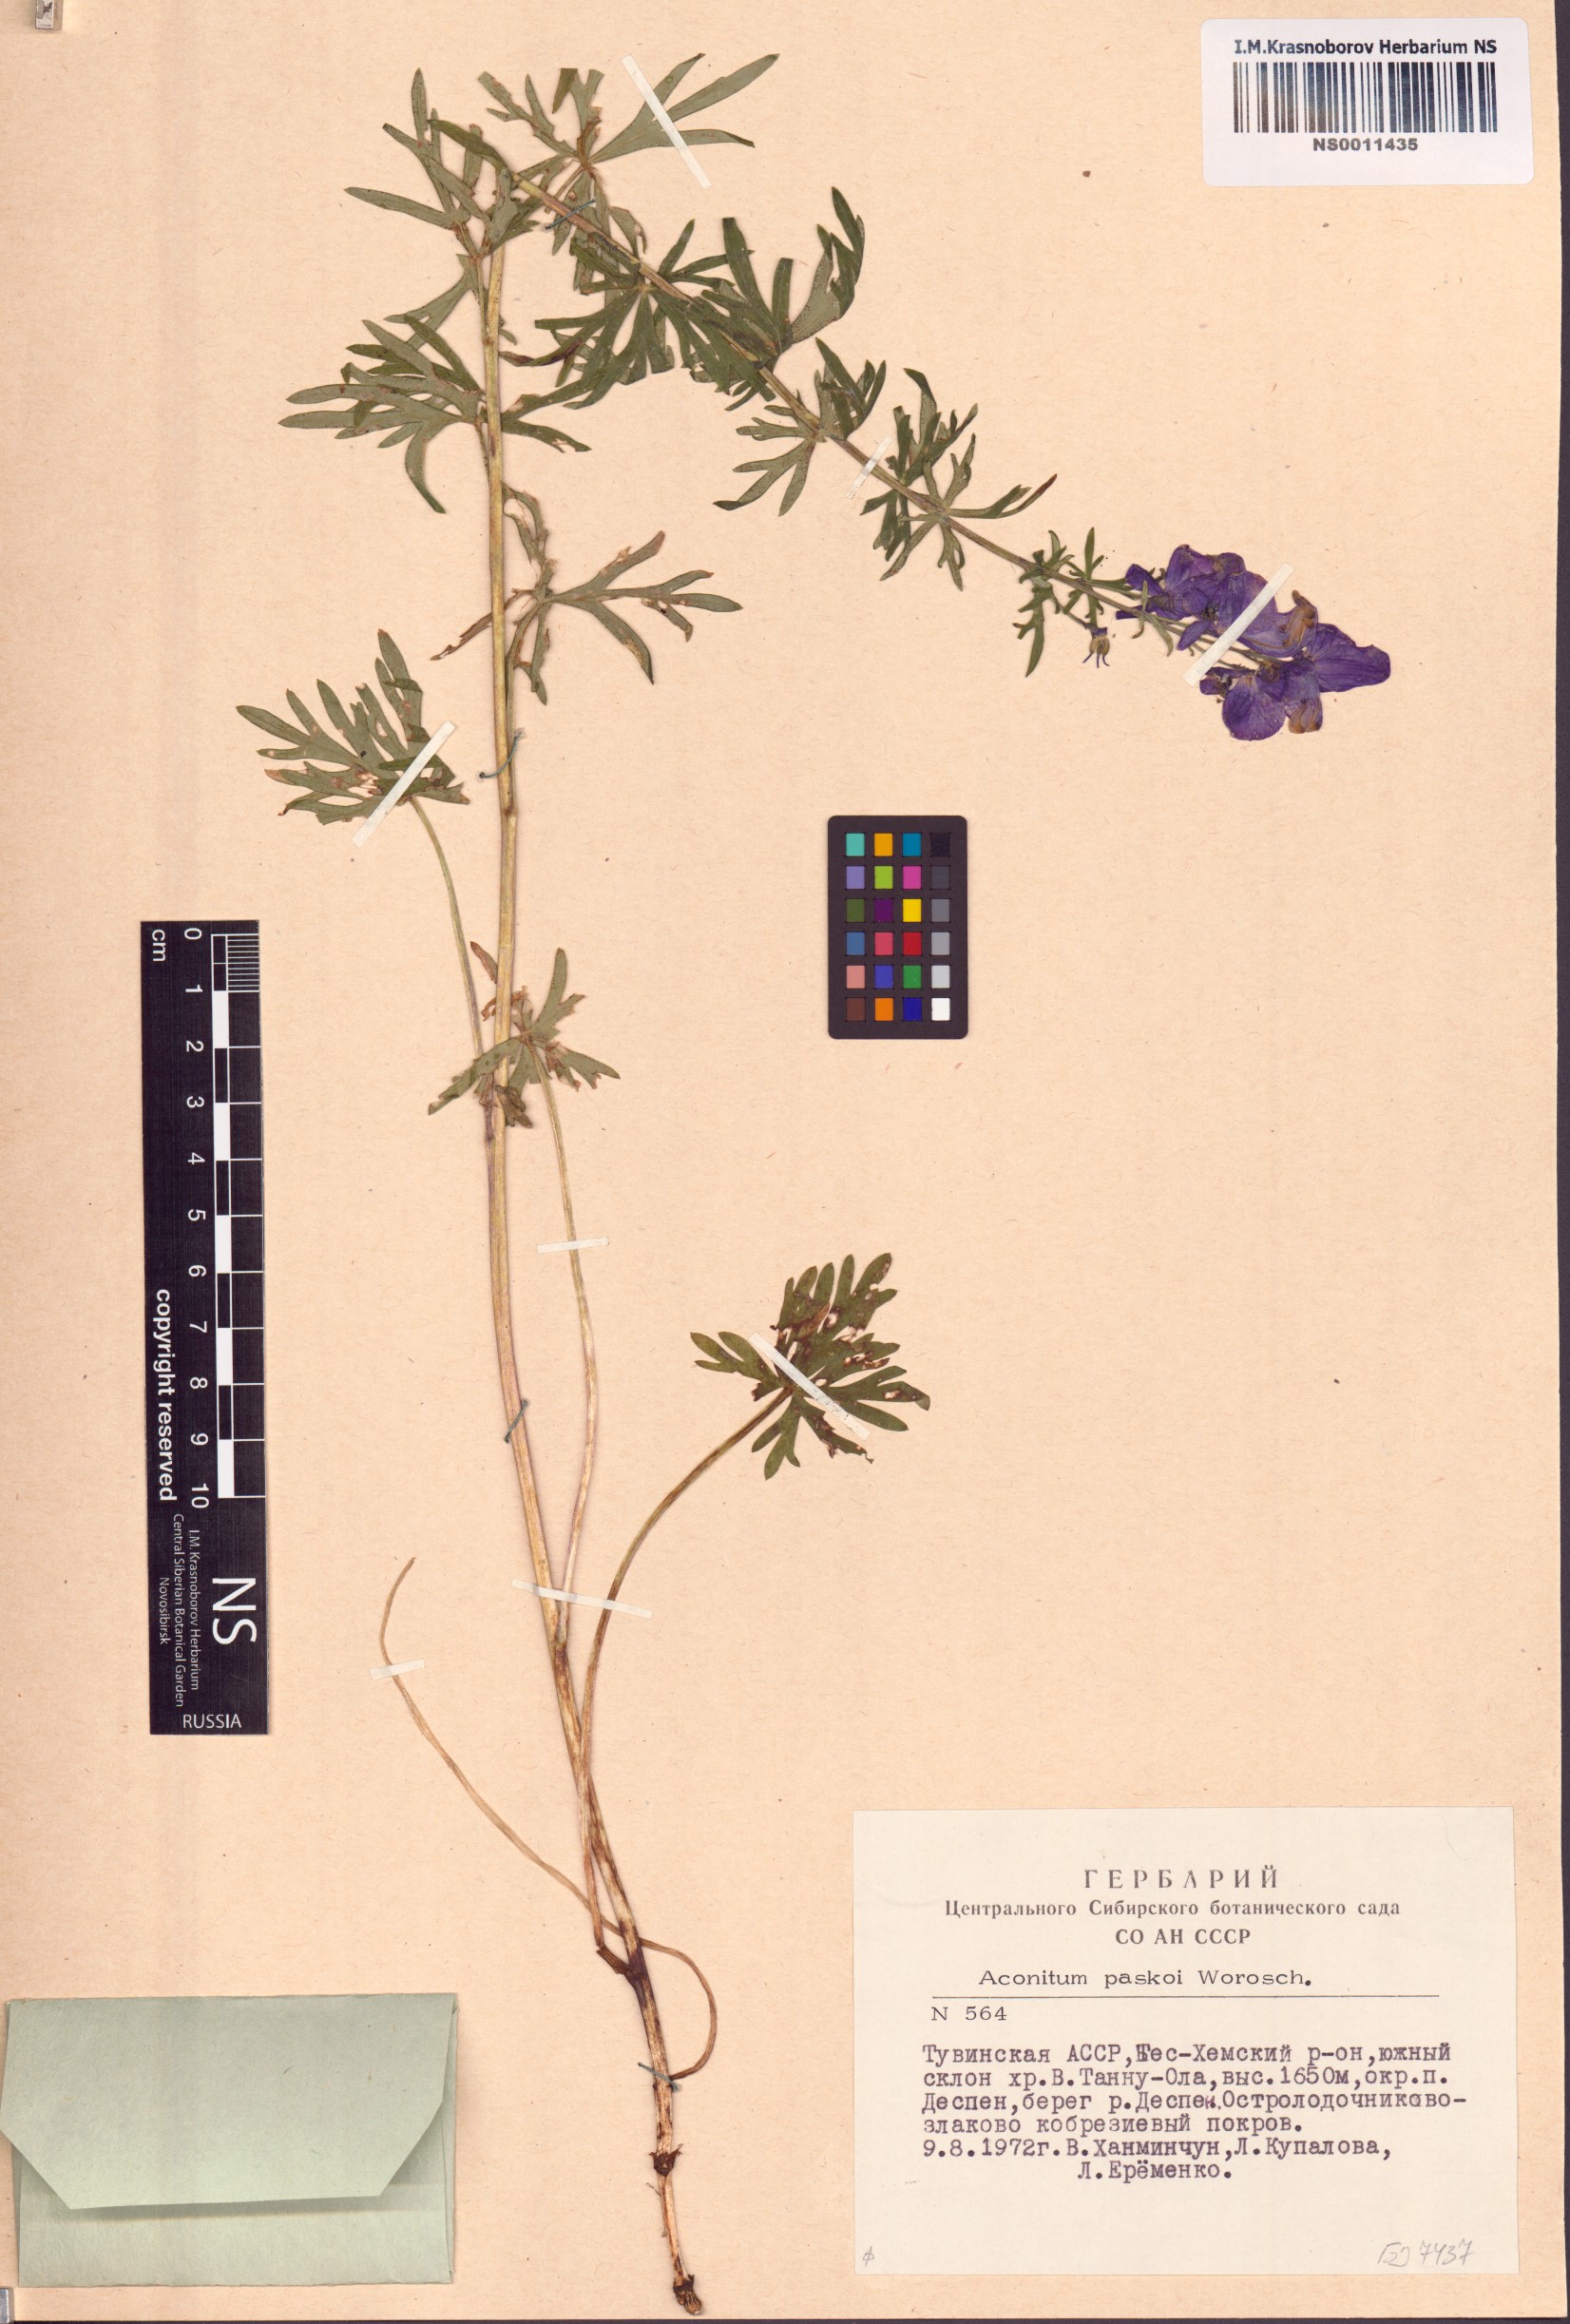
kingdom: Plantae
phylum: Tracheophyta
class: Magnoliopsida
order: Ranunculales
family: Ranunculaceae
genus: Aconitum
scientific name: Aconitum pascoi
